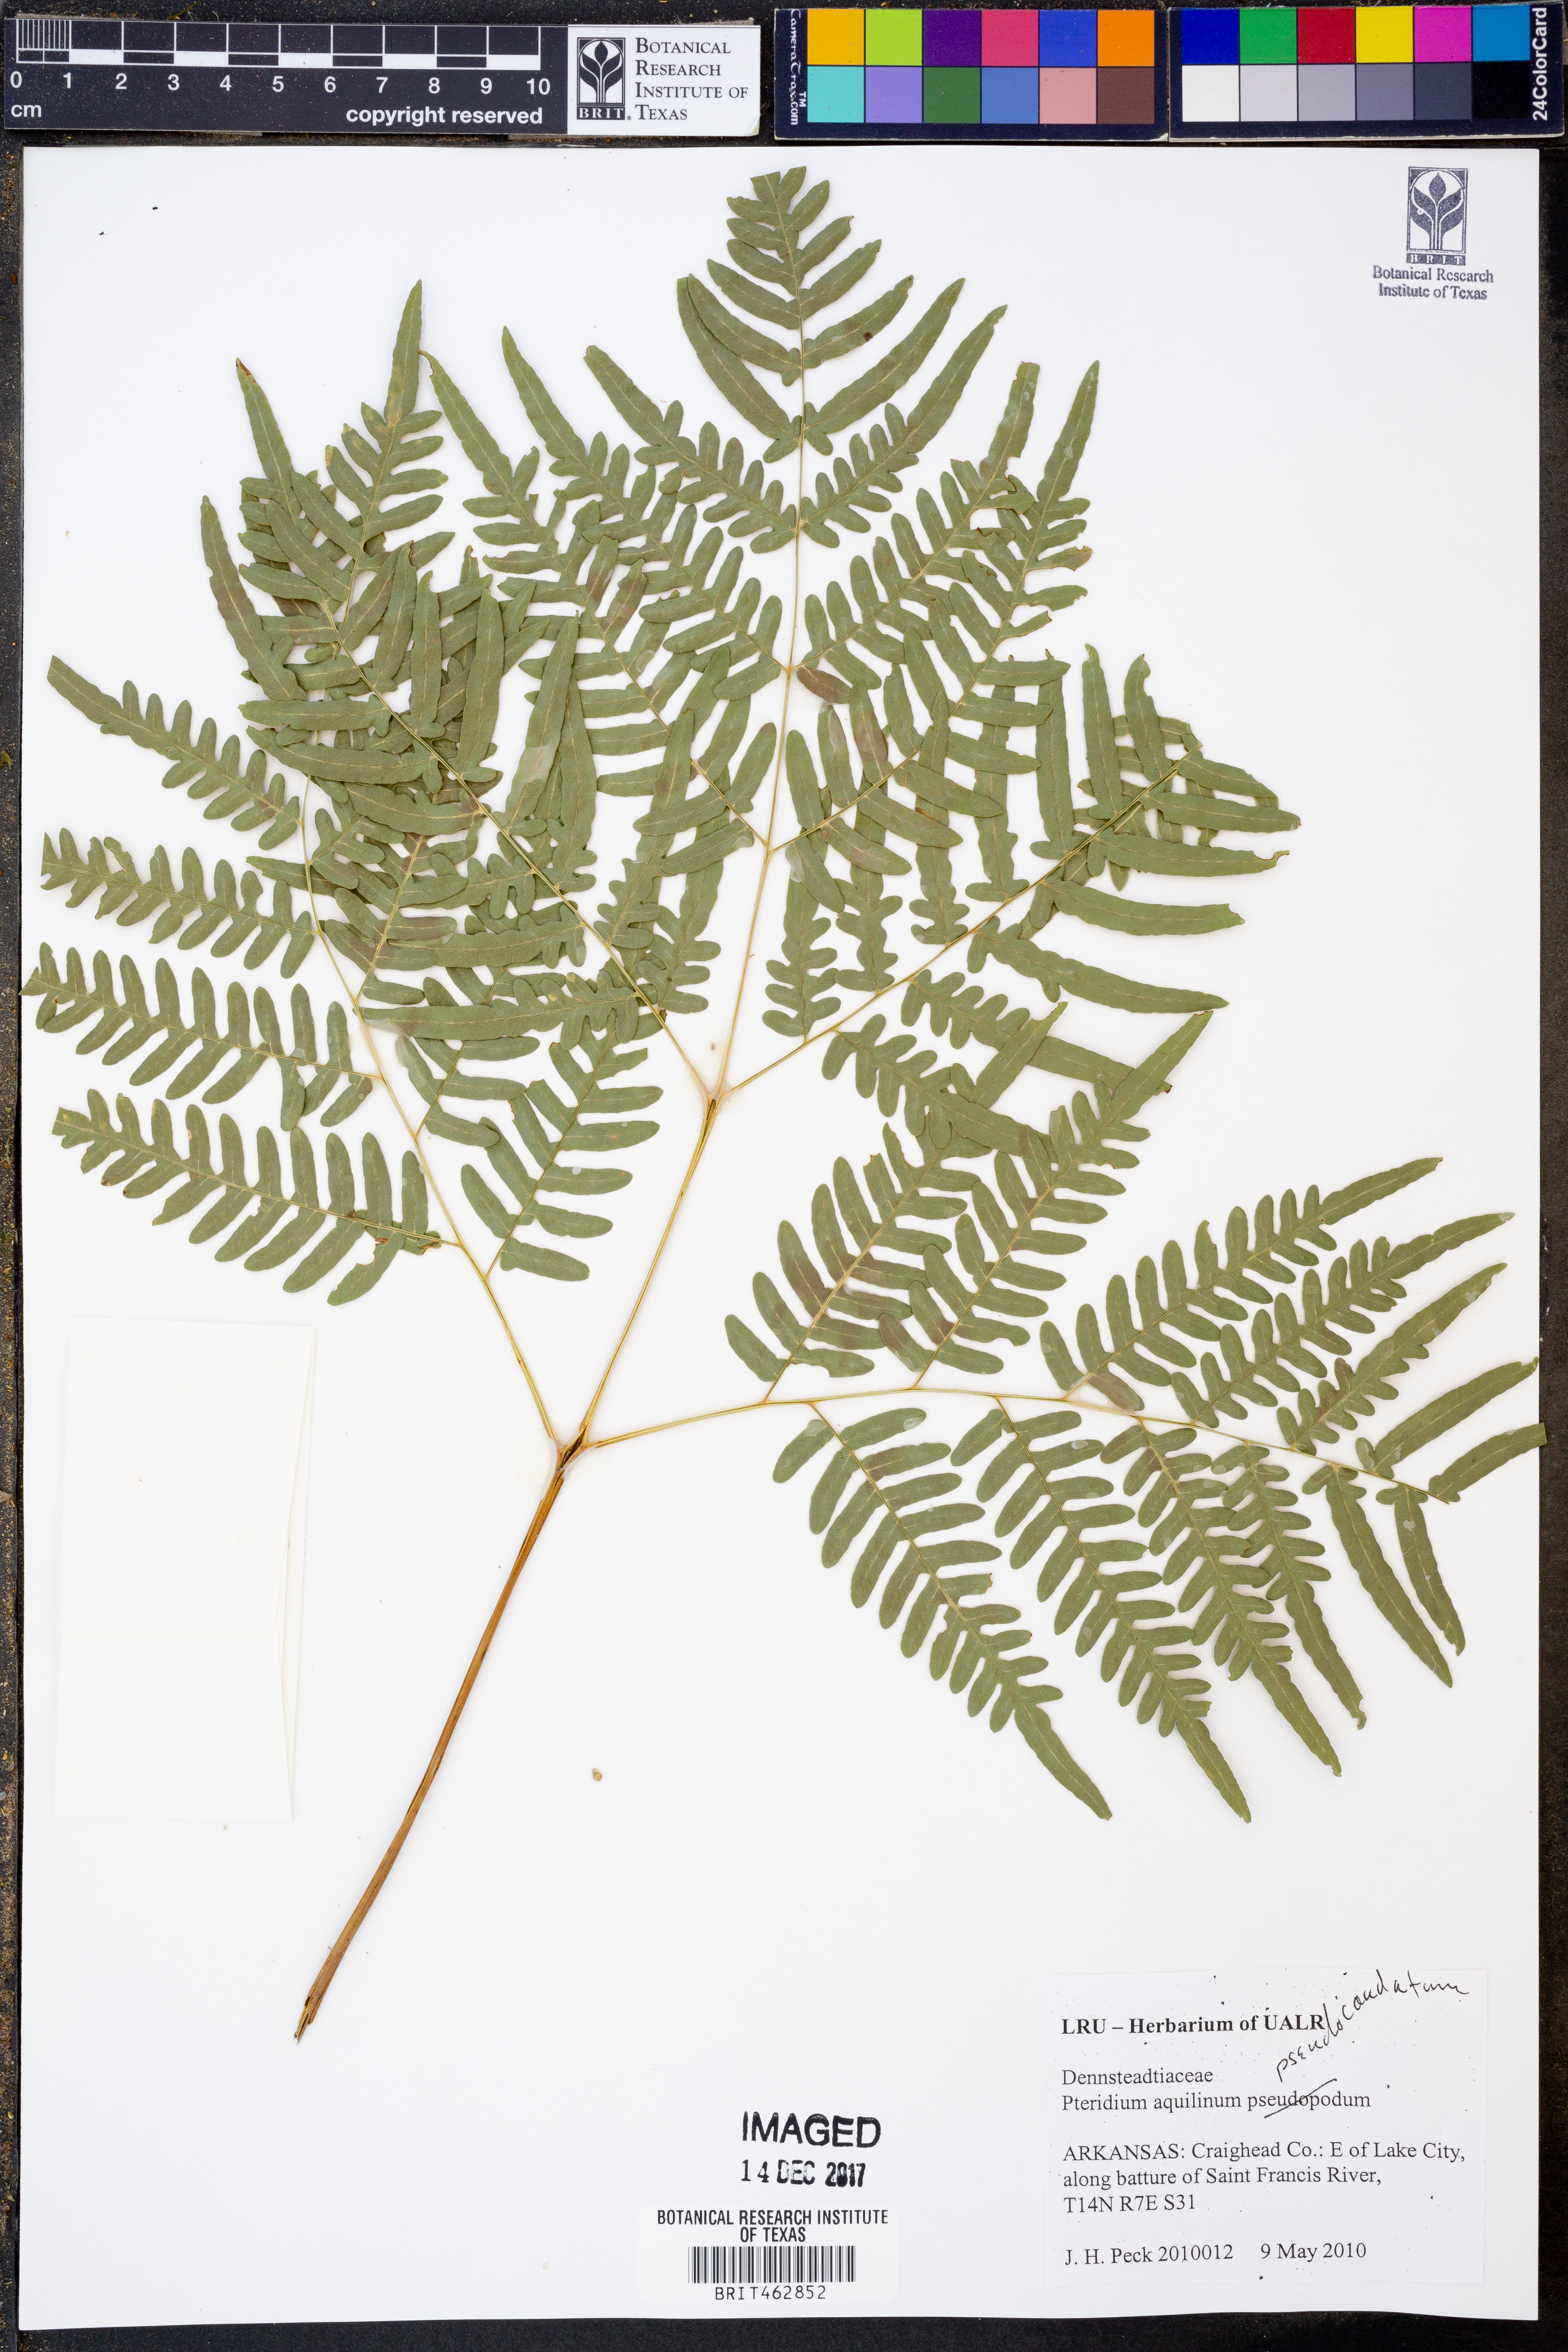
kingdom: Plantae
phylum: Tracheophyta
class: Polypodiopsida
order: Polypodiales
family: Dennstaedtiaceae
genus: Pteridium
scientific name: Pteridium aquilinum
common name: Bracken
